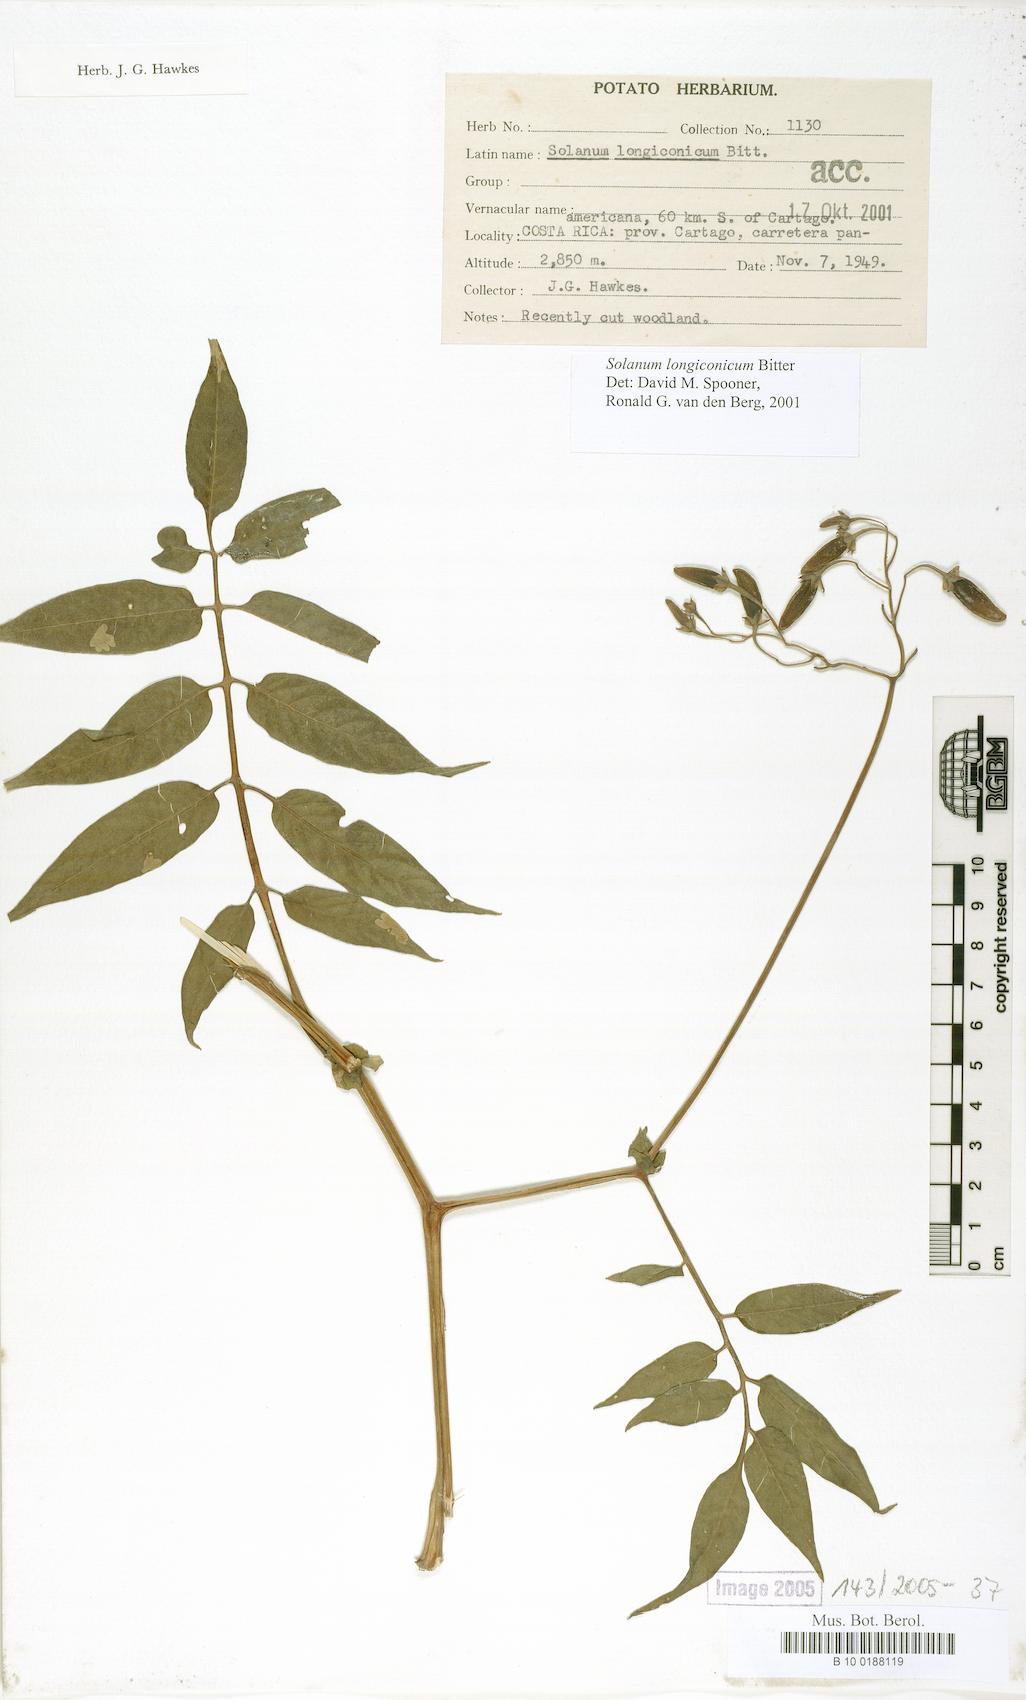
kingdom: Plantae
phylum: Tracheophyta
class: Magnoliopsida
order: Solanales
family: Solanaceae
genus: Solanum
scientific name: Solanum longiconicum
